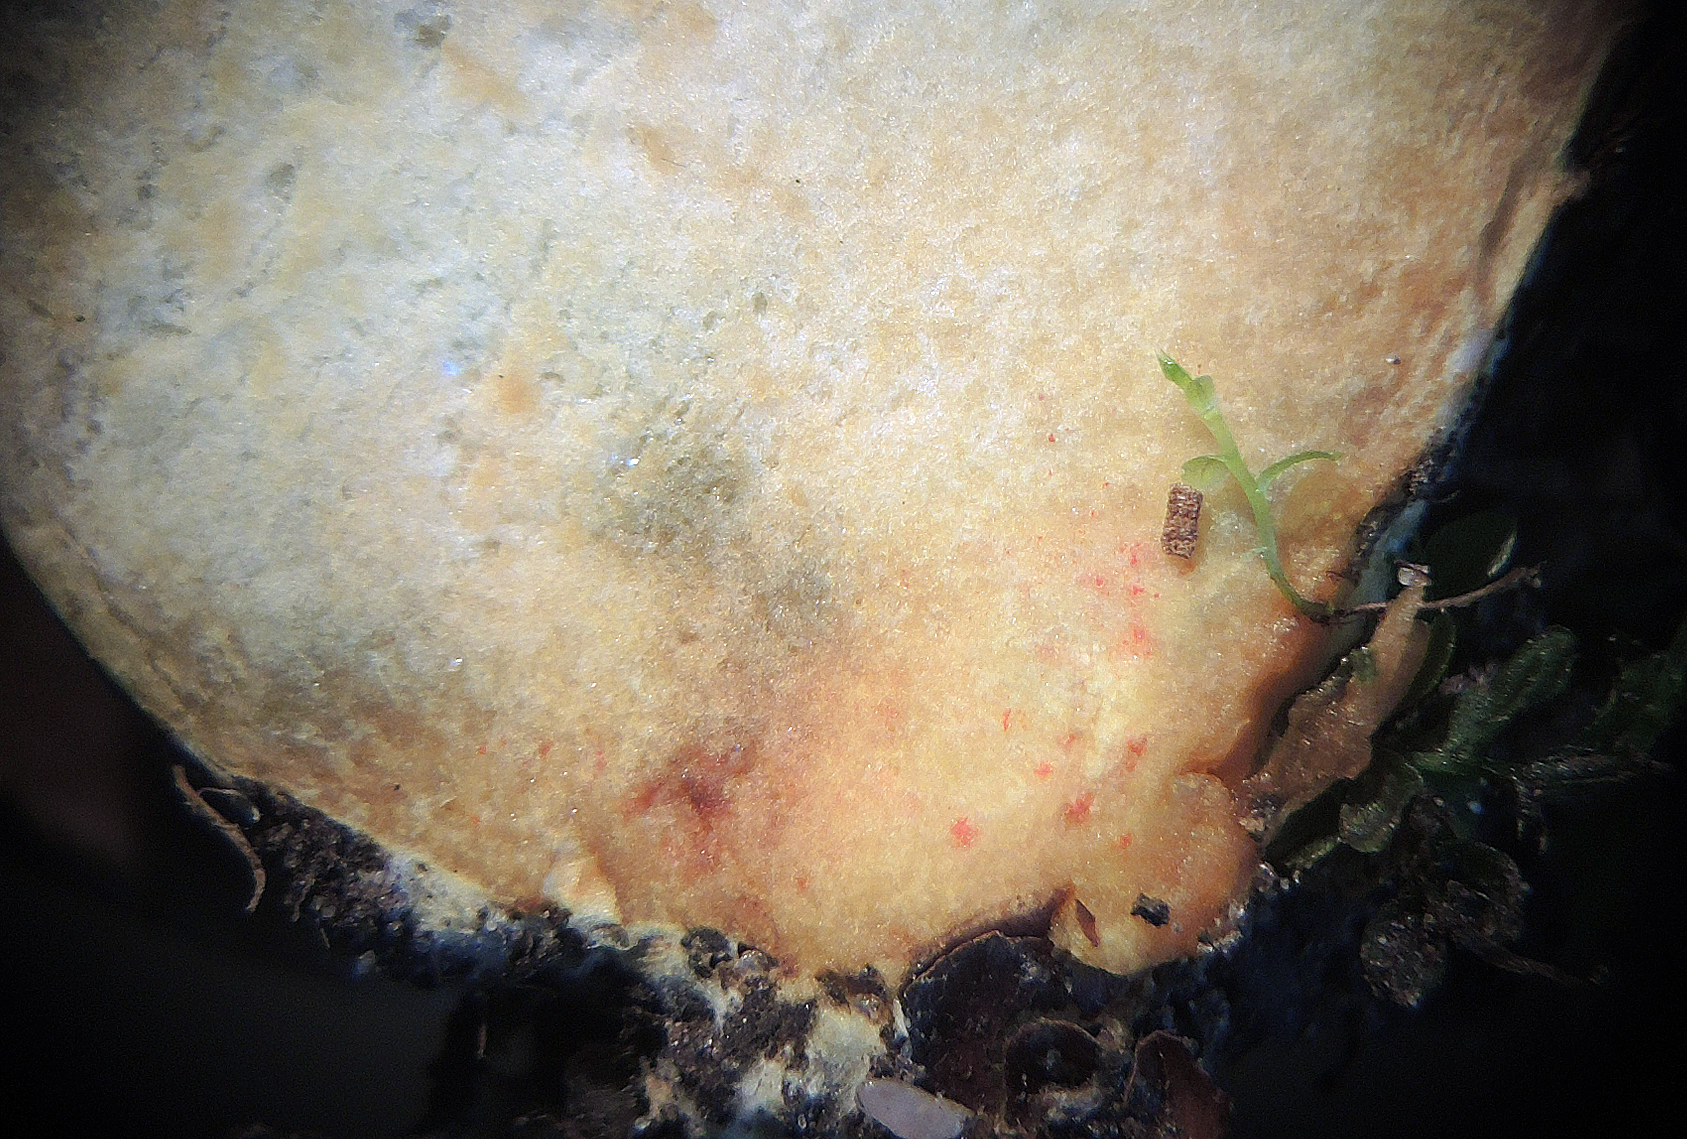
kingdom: Fungi
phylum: Basidiomycota
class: Agaricomycetes
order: Boletales
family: Boletaceae
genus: Hortiboletus
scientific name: Hortiboletus engelii
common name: fersken-rørhat
